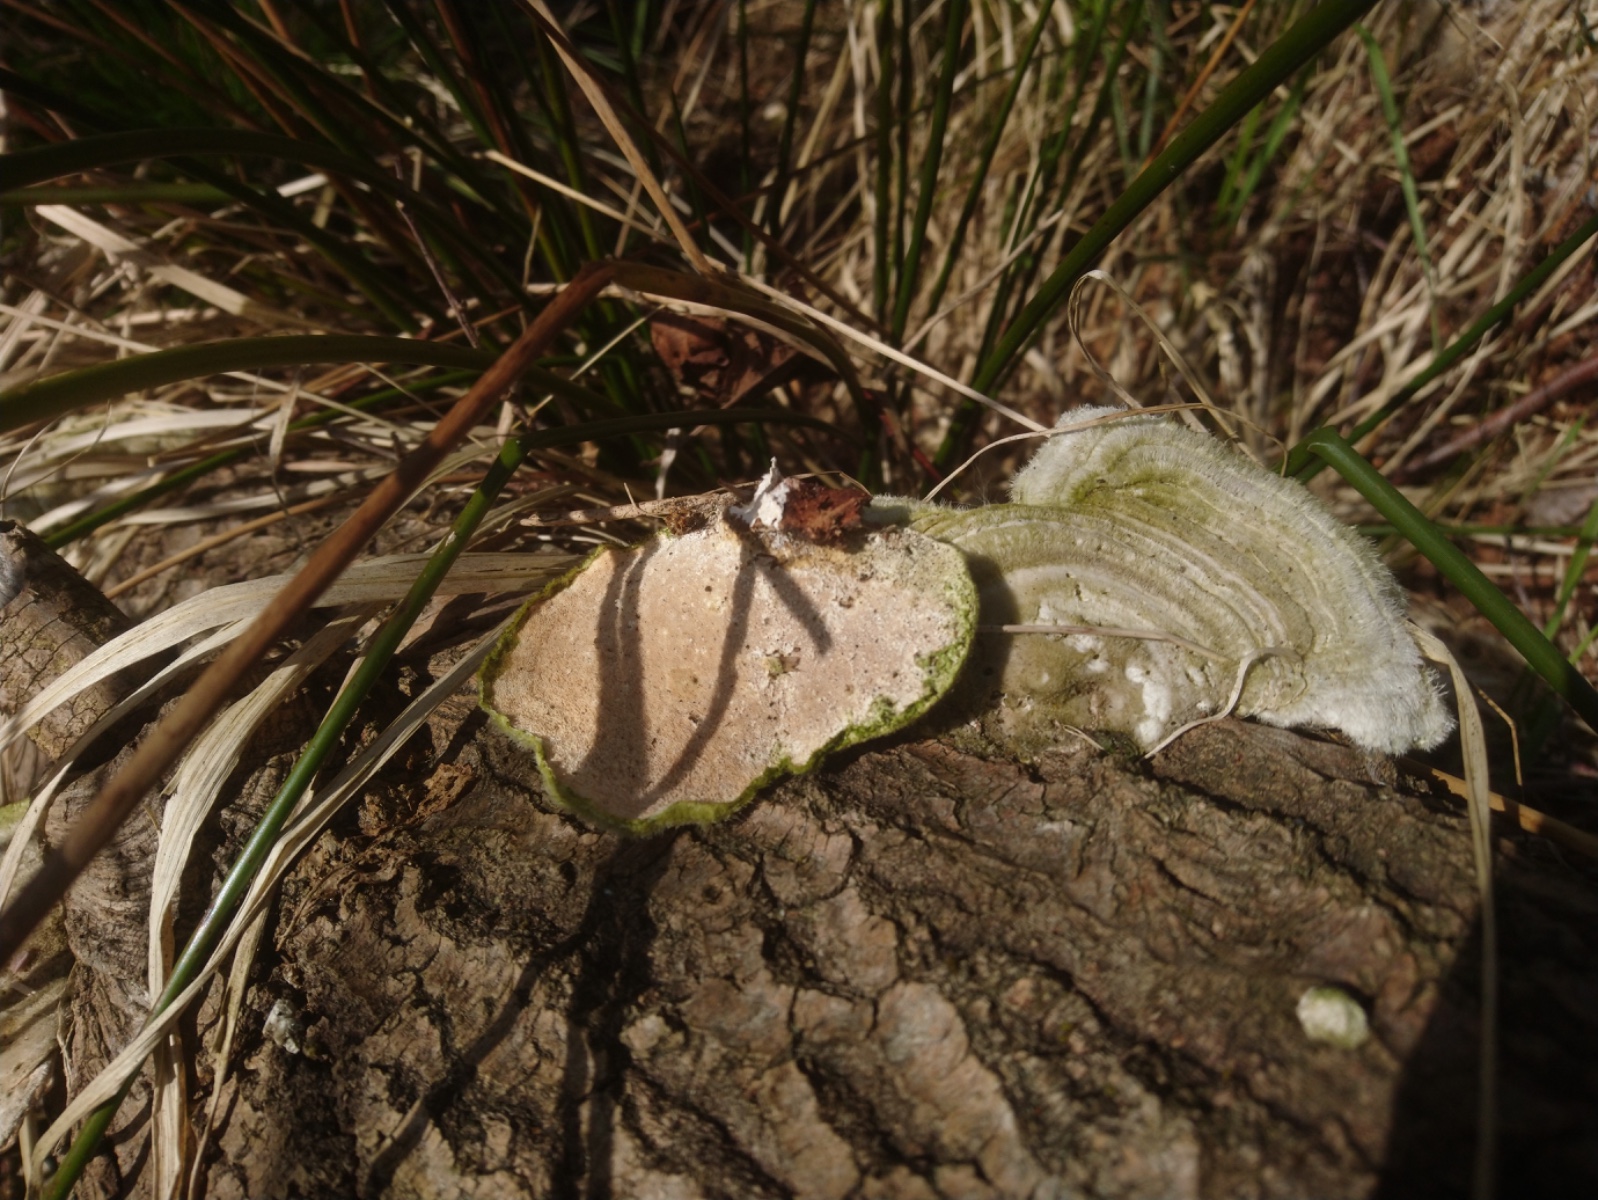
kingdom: Fungi
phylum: Basidiomycota
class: Agaricomycetes
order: Polyporales
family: Polyporaceae
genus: Trametes
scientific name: Trametes hirsuta
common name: håret læderporesvamp
